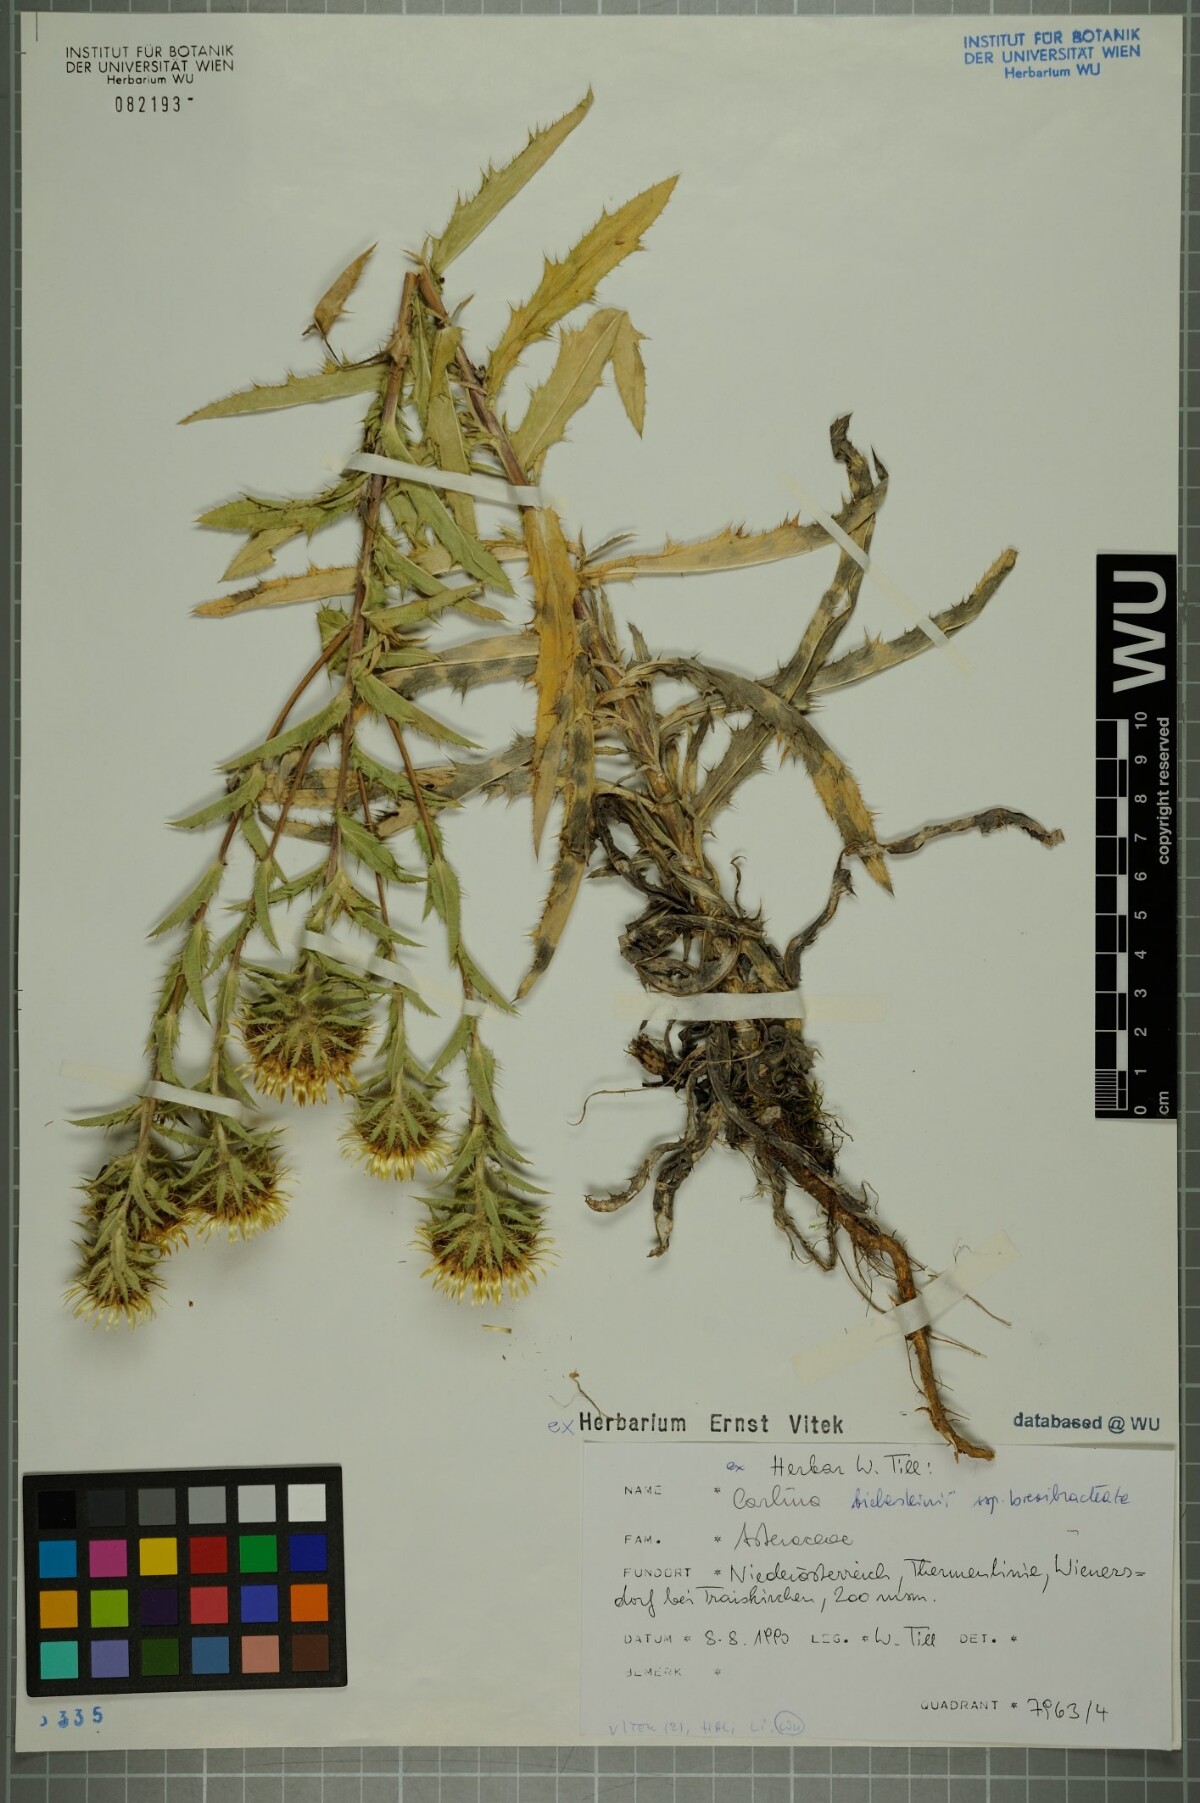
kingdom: Plantae
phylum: Tracheophyta
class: Magnoliopsida
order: Asterales
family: Asteraceae
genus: Carlina
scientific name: Carlina biebersteinii
